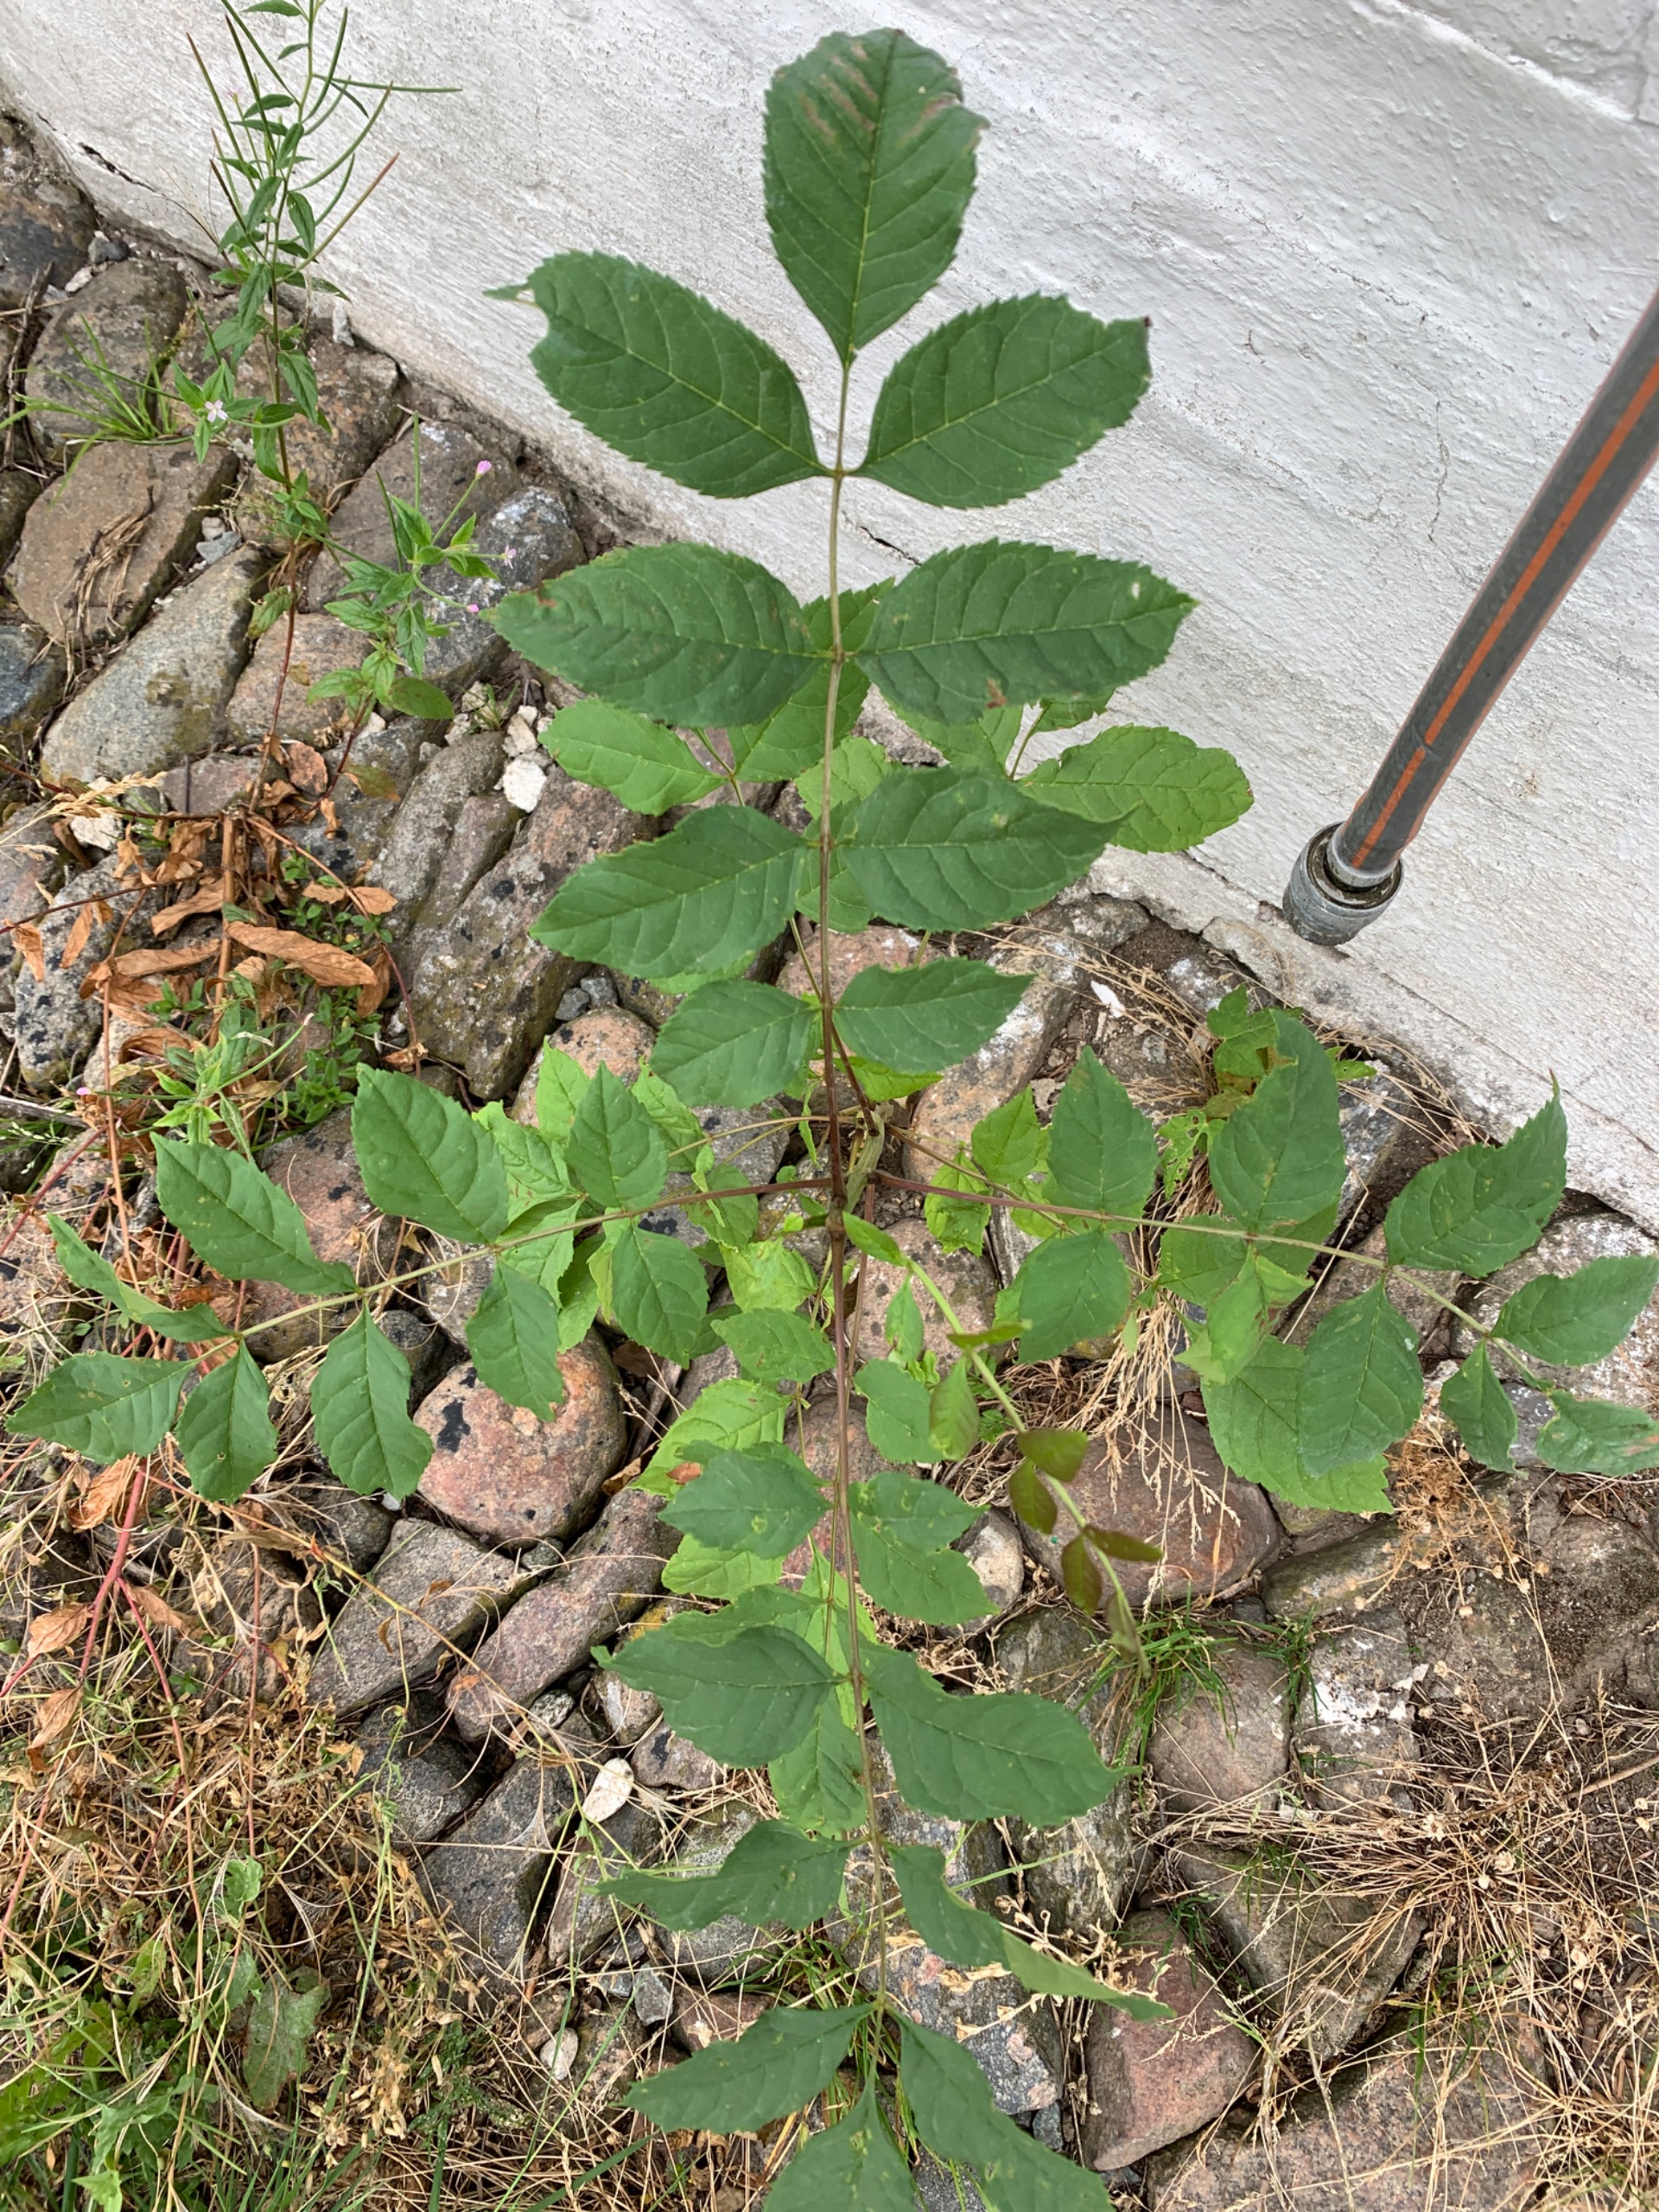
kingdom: Plantae
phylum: Tracheophyta
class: Magnoliopsida
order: Lamiales
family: Oleaceae
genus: Fraxinus
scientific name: Fraxinus excelsior
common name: Ask
